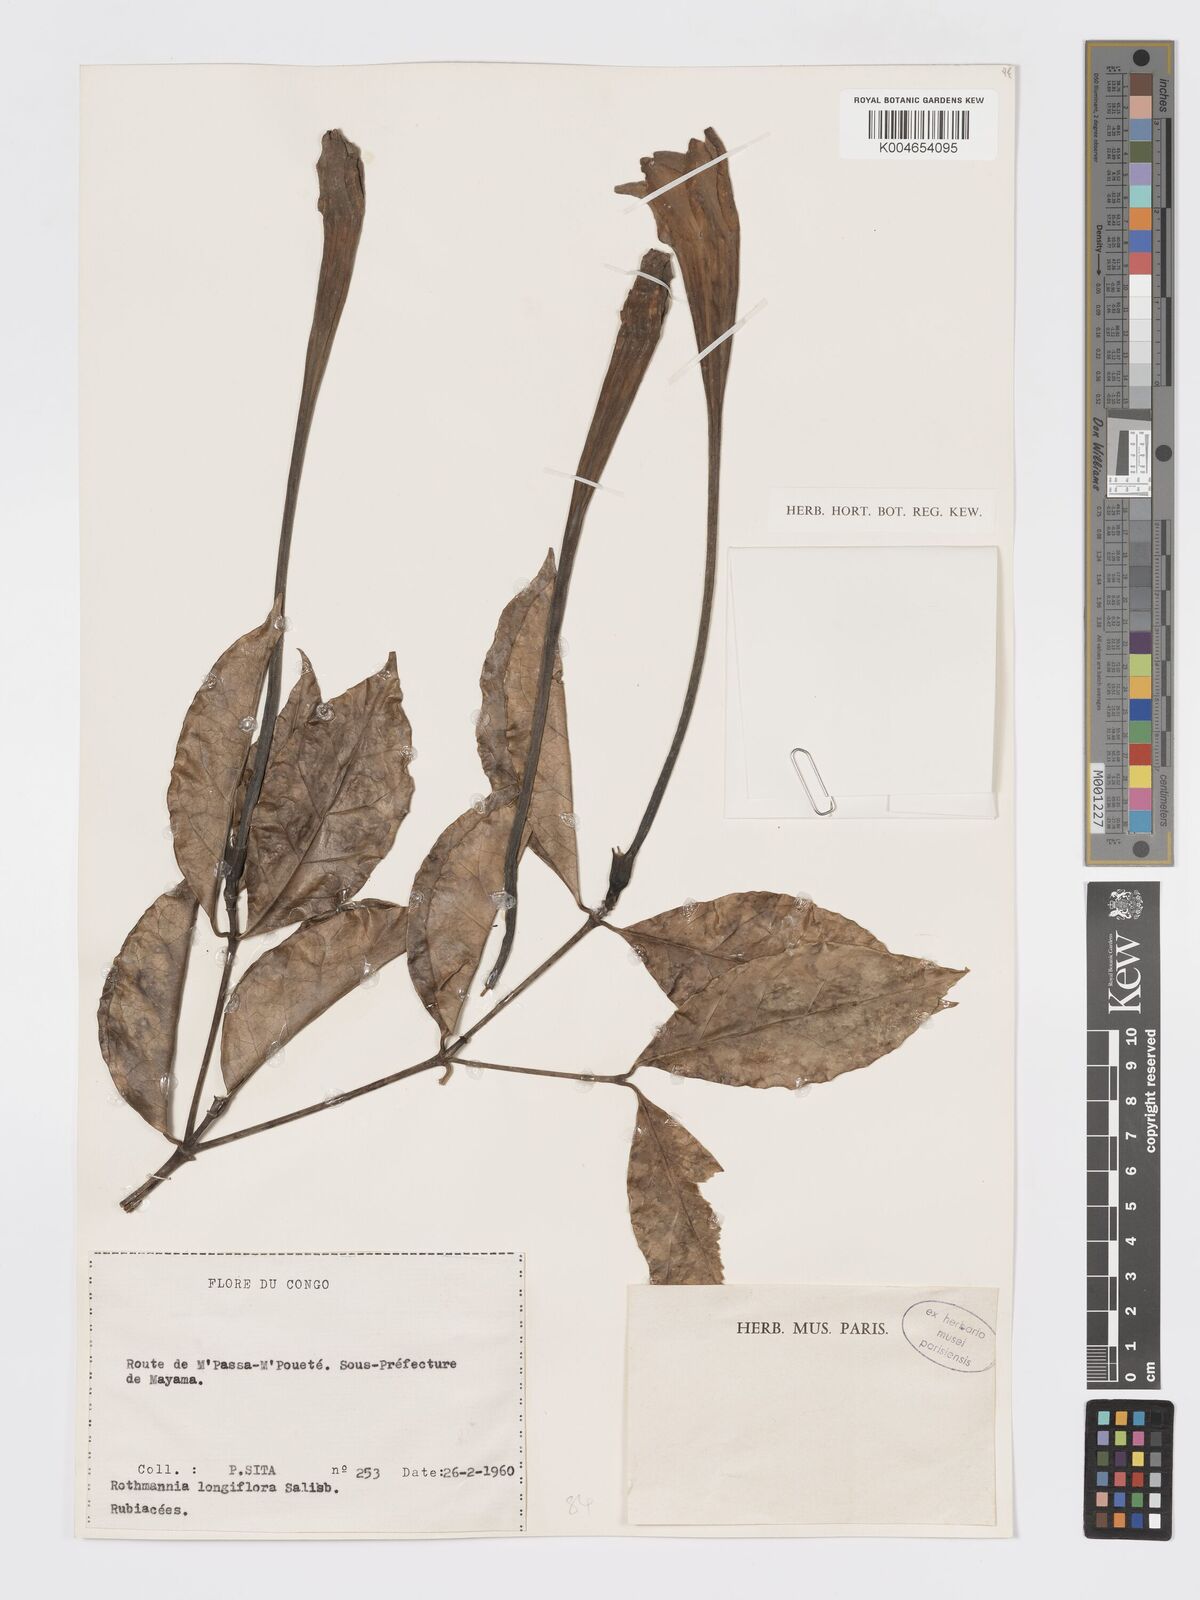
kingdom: Plantae
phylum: Tracheophyta
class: Magnoliopsida
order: Gentianales
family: Rubiaceae
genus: Rothmannia
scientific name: Rothmannia longiflora
